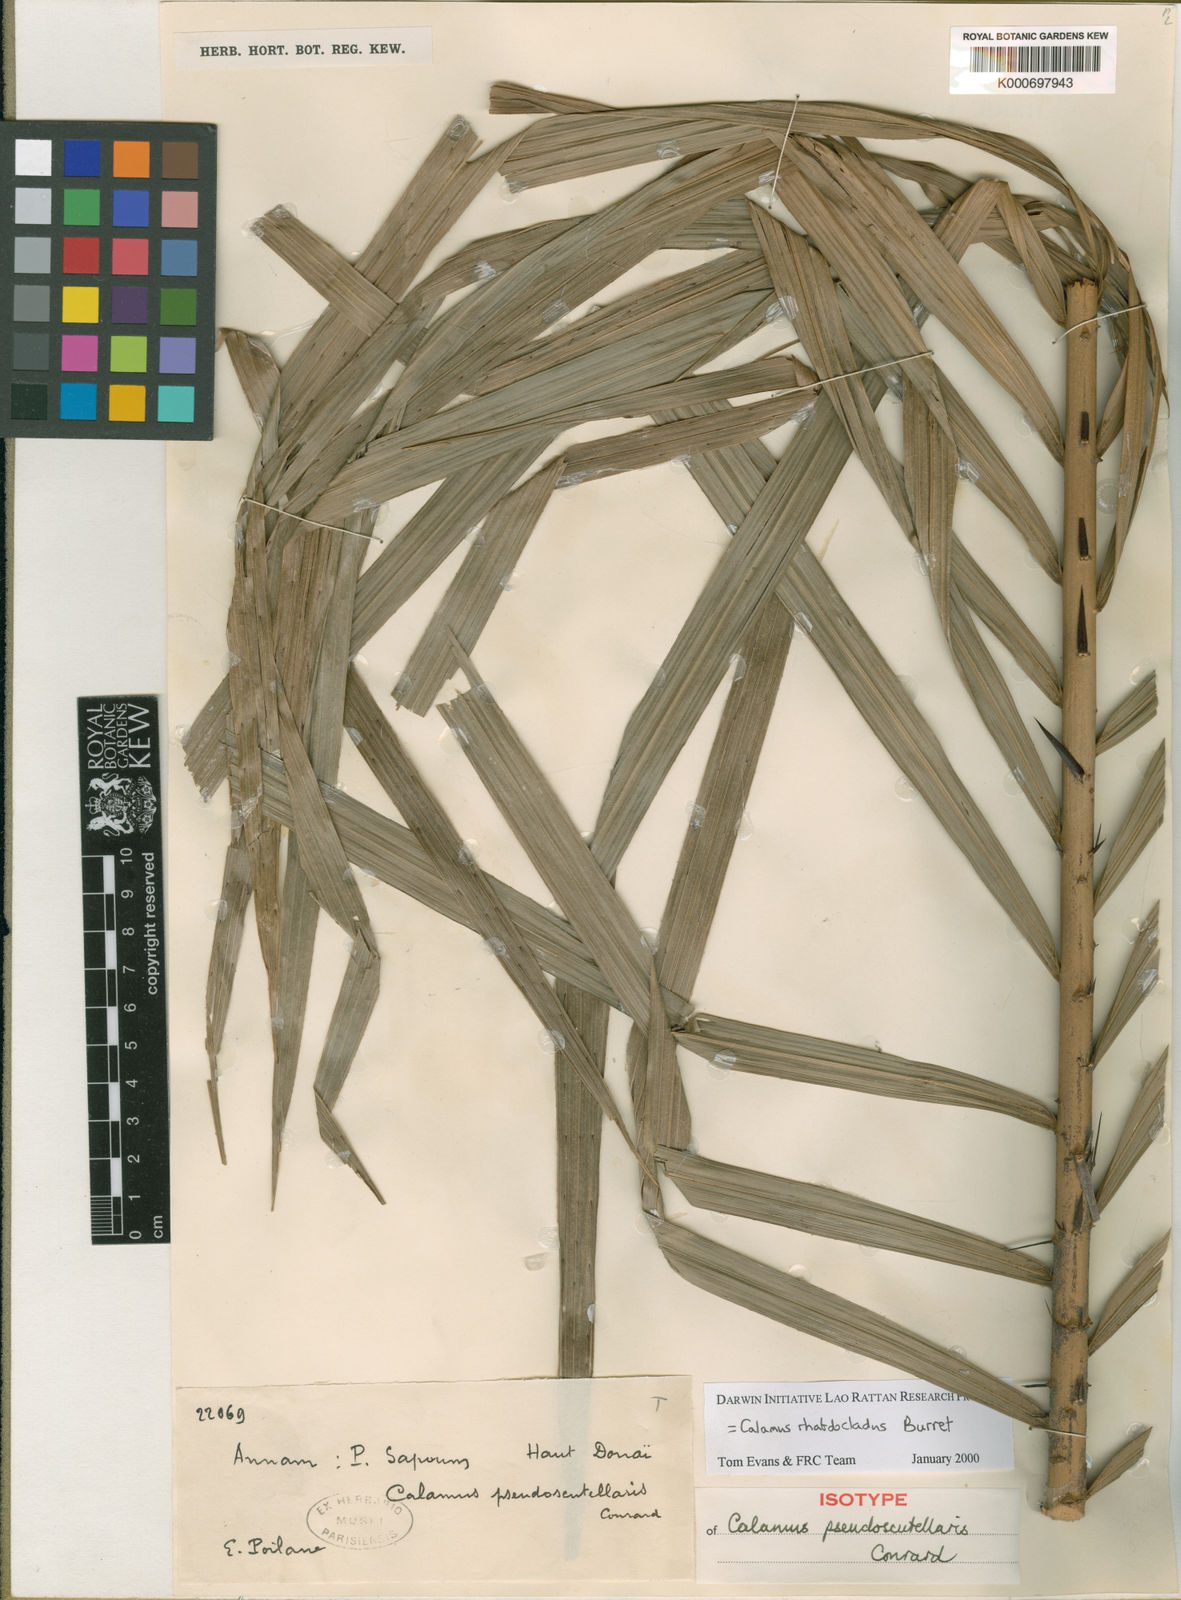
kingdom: Plantae
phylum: Tracheophyta
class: Liliopsida
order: Arecales
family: Arecaceae
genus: Calamus
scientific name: Calamus rhabdocladus
